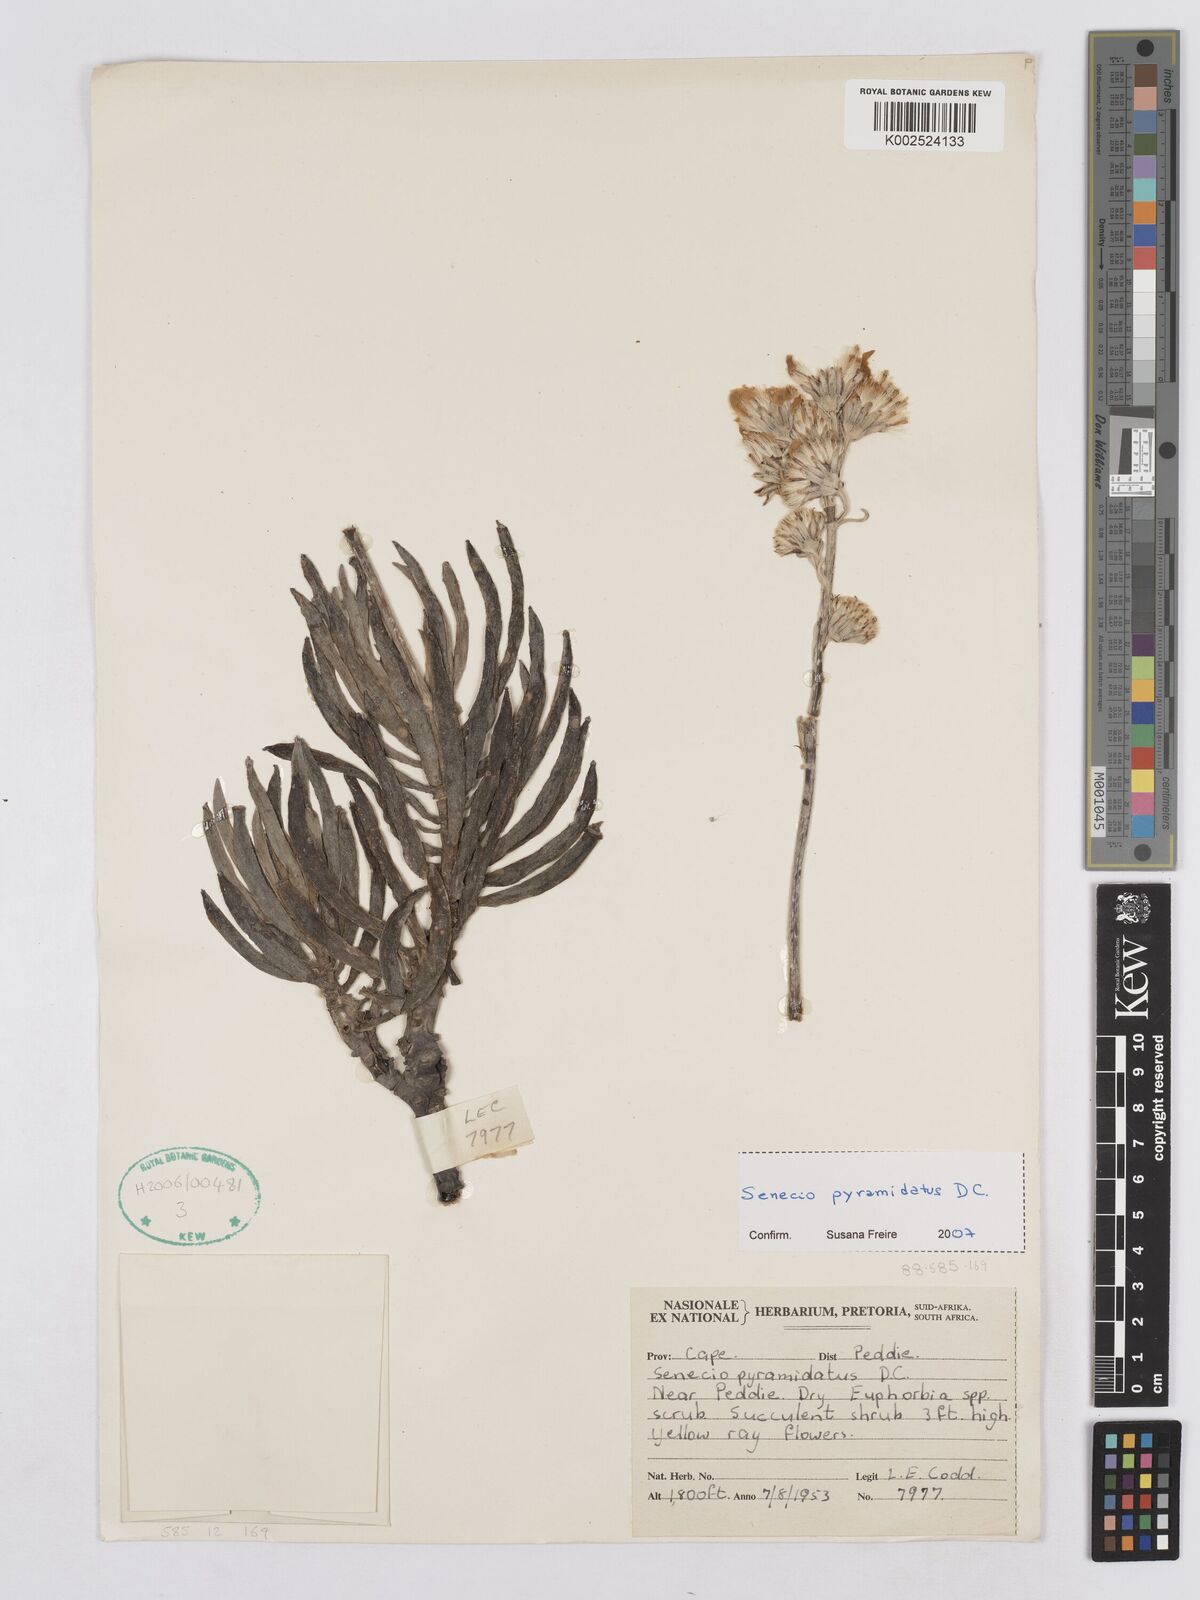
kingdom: Plantae
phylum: Tracheophyta
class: Magnoliopsida
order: Asterales
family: Asteraceae
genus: Caputia
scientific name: Caputia pyramidata
